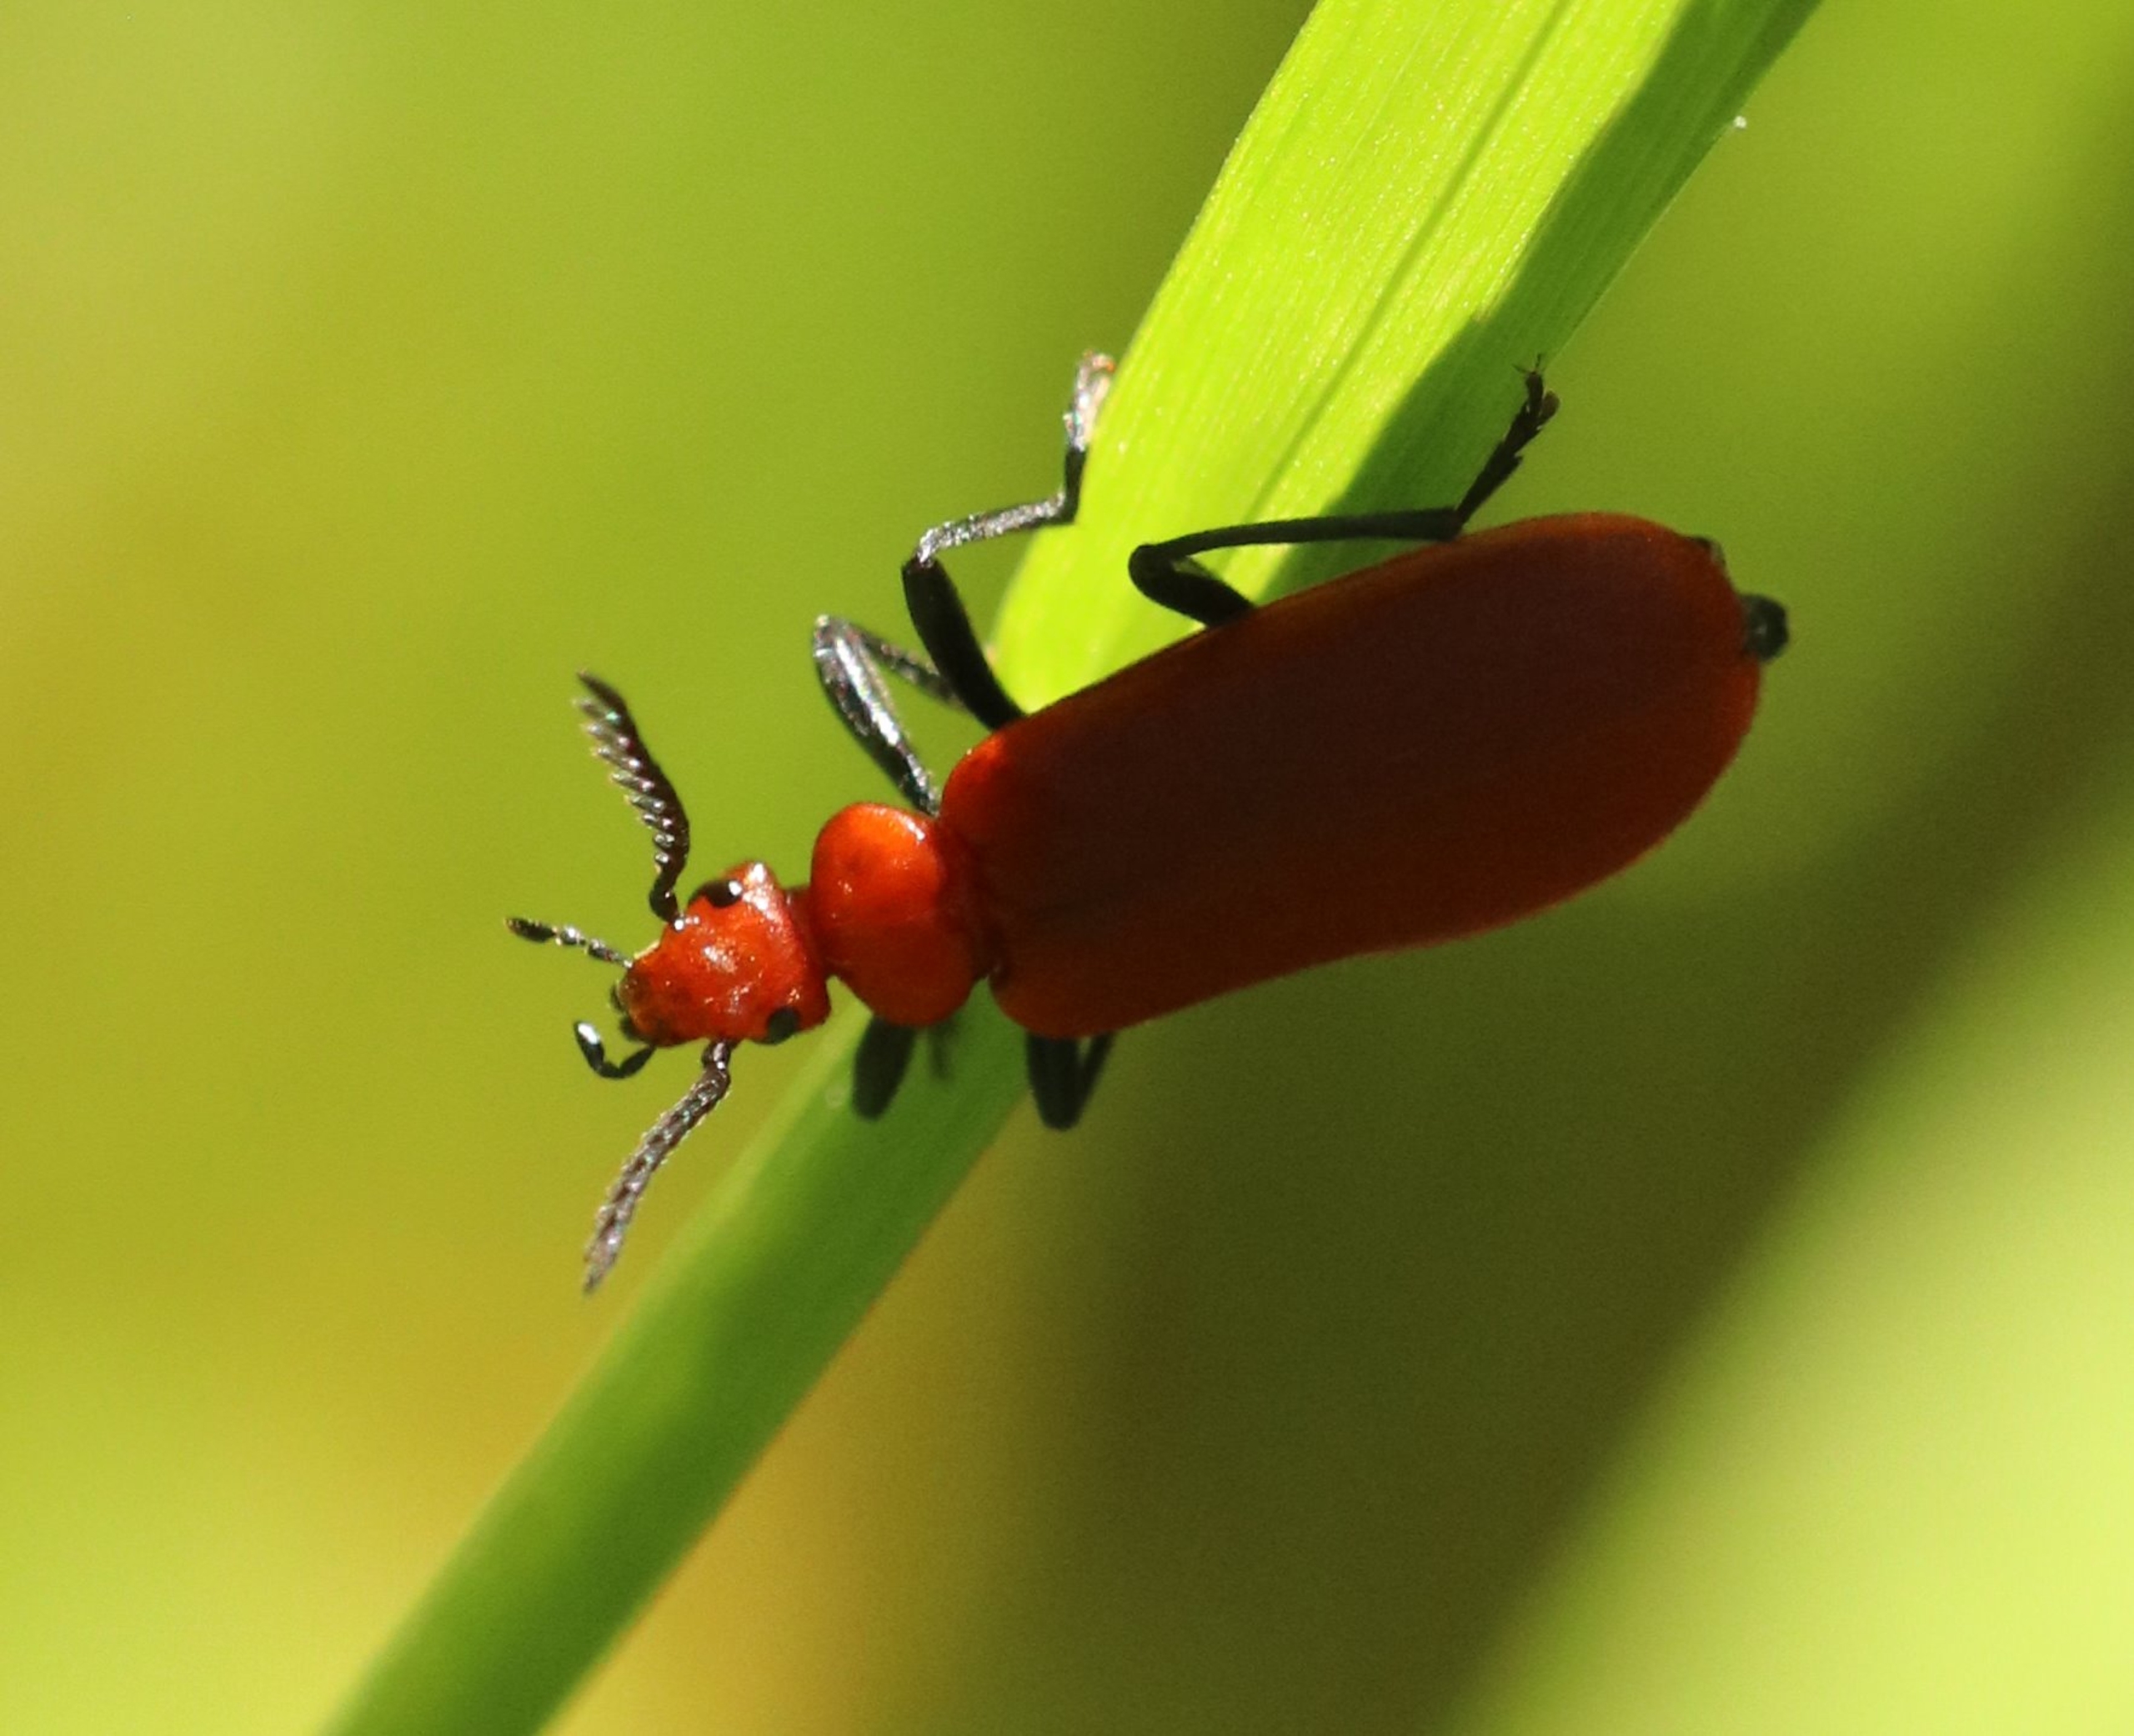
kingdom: Animalia
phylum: Arthropoda
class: Insecta
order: Coleoptera
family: Pyrochroidae
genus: Pyrochroa
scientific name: Pyrochroa serraticornis
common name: Rødhovedet kardinalbille
